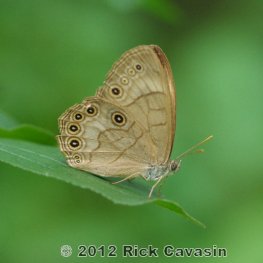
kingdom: Animalia
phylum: Arthropoda
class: Insecta
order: Lepidoptera
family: Nymphalidae
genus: Lethe
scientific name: Lethe eurydice
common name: Appalachian Eyed Brown
